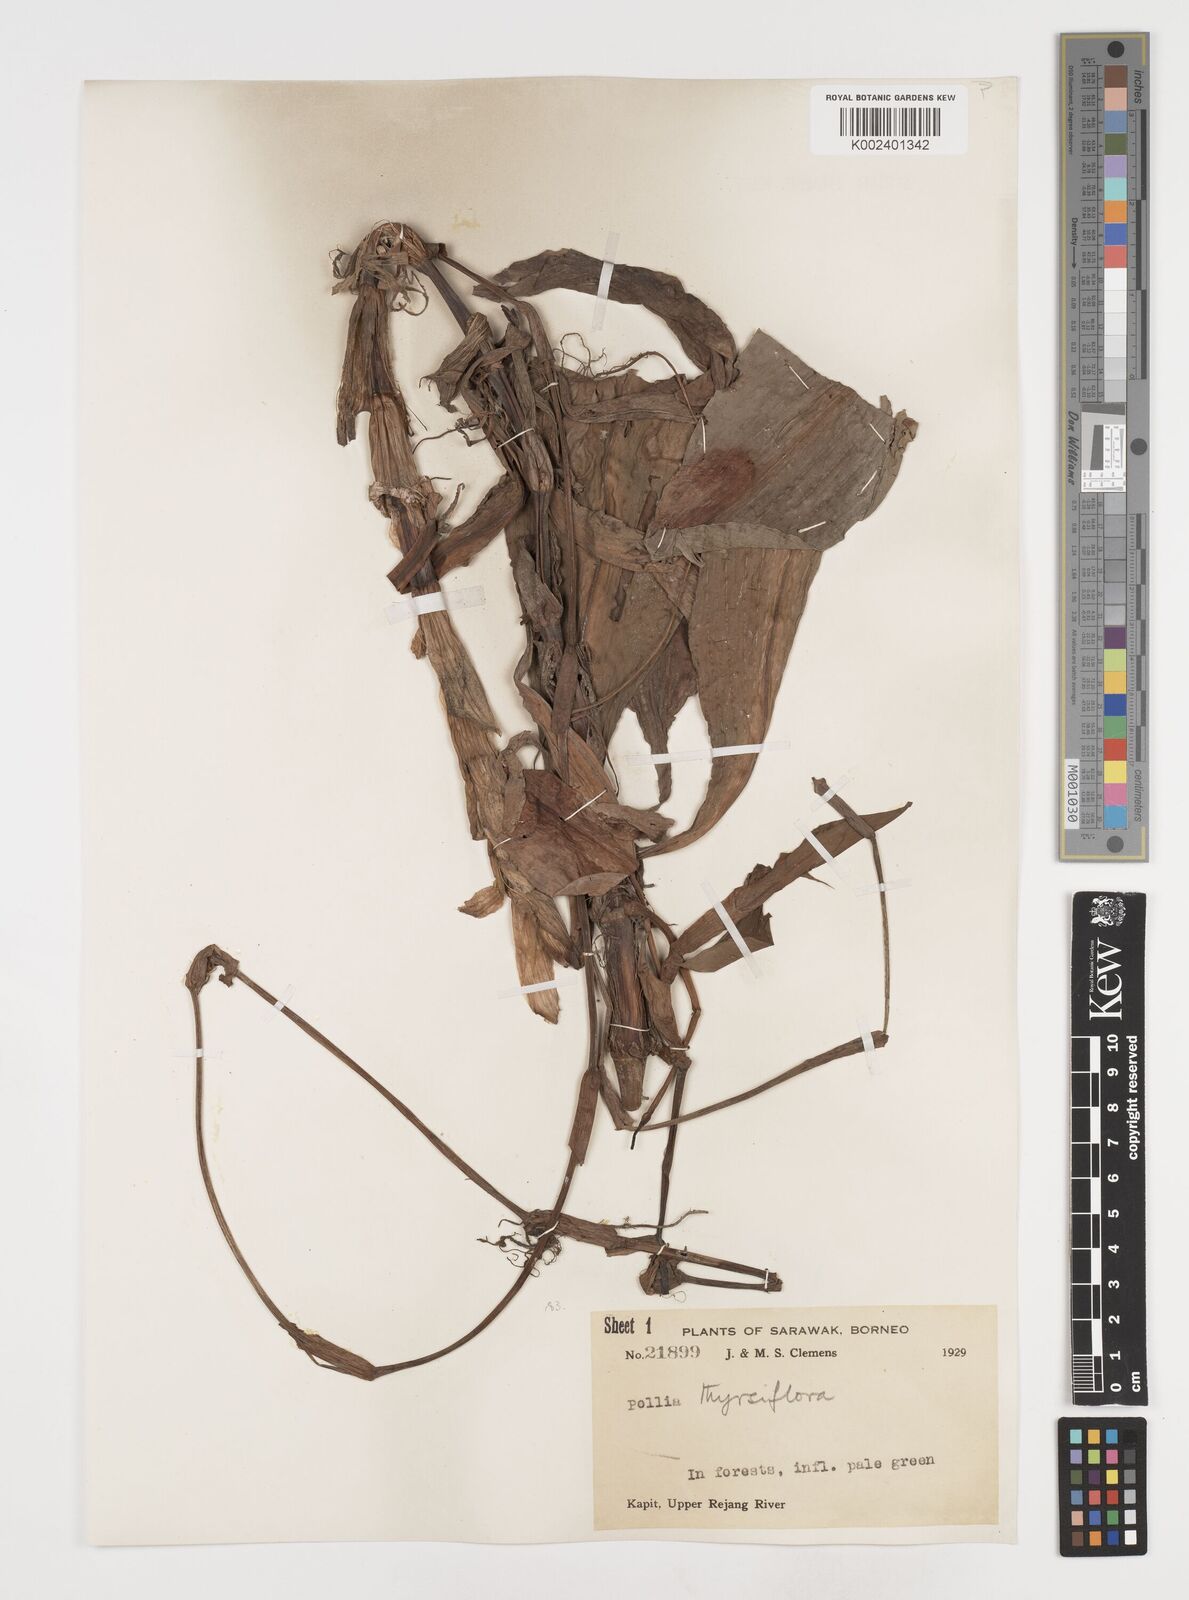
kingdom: Plantae
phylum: Tracheophyta
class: Liliopsida
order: Commelinales
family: Commelinaceae
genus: Pollia
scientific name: Pollia thyrsiflora
